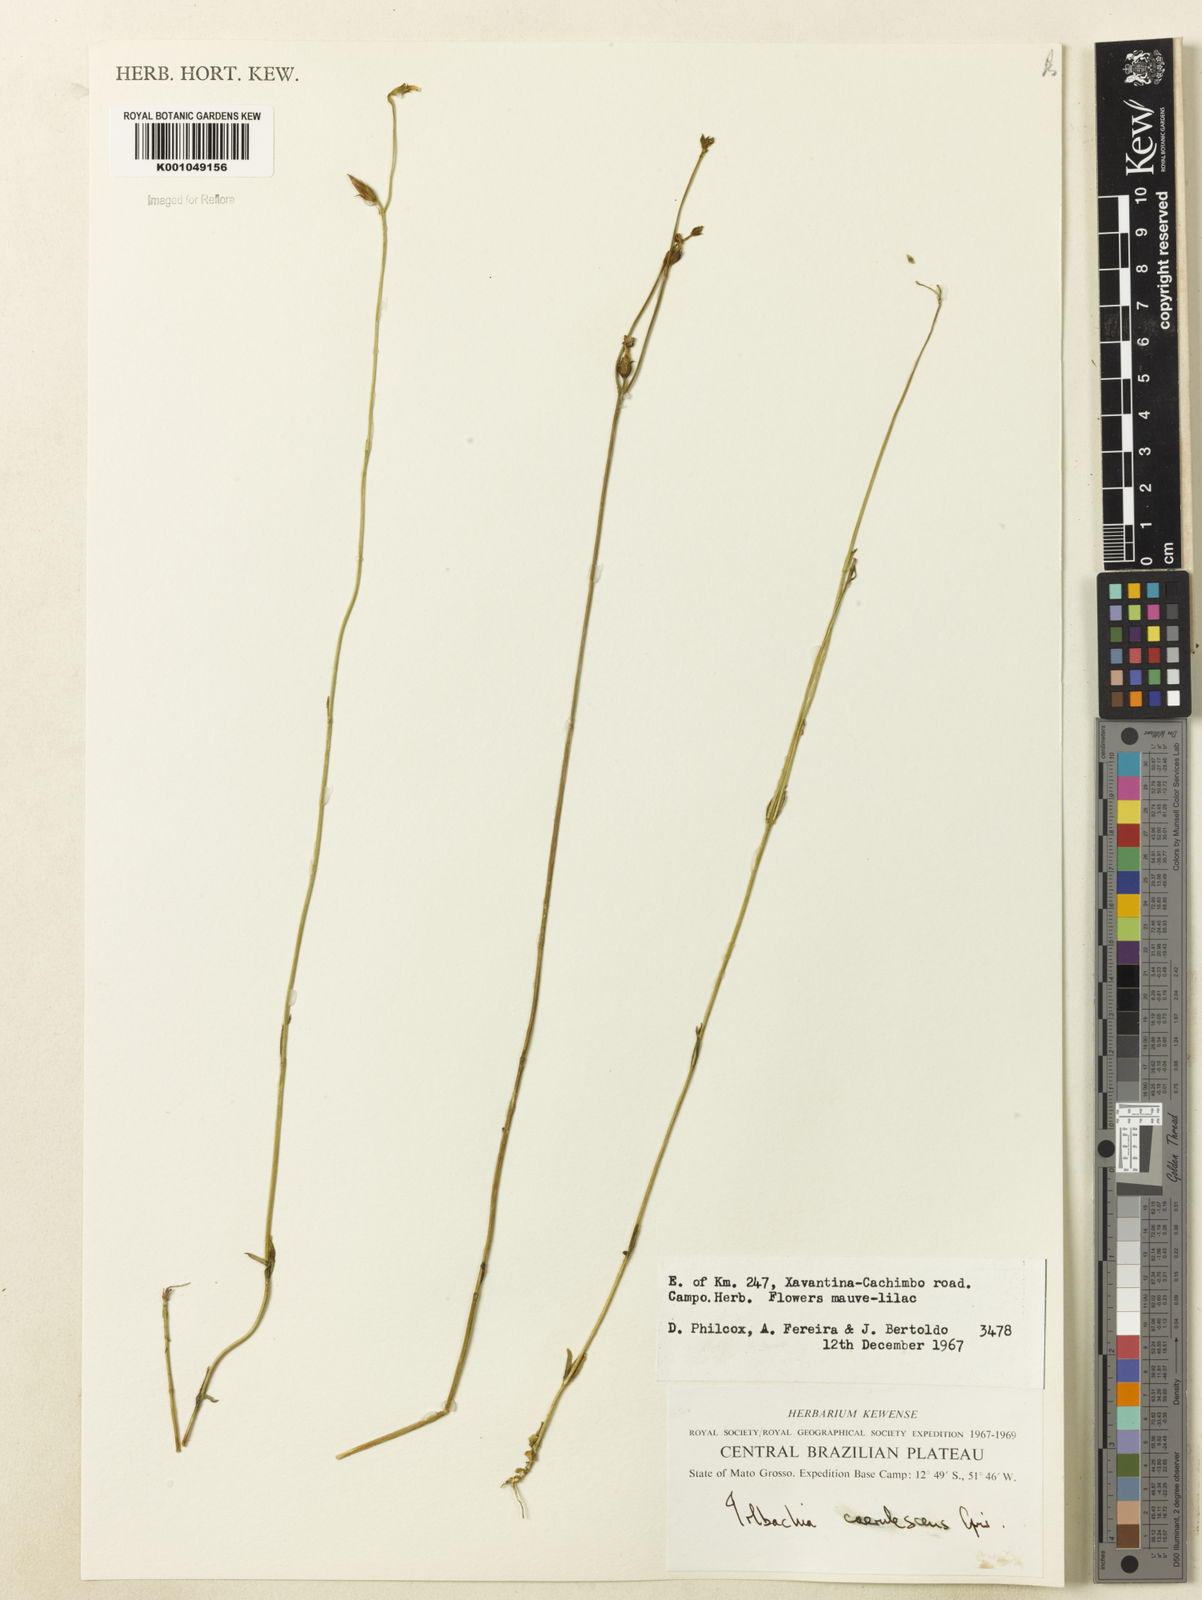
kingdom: Plantae
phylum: Tracheophyta
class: Magnoliopsida
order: Gentianales
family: Gentianaceae
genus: Tetrapollinia
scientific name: Tetrapollinia caerulescens
